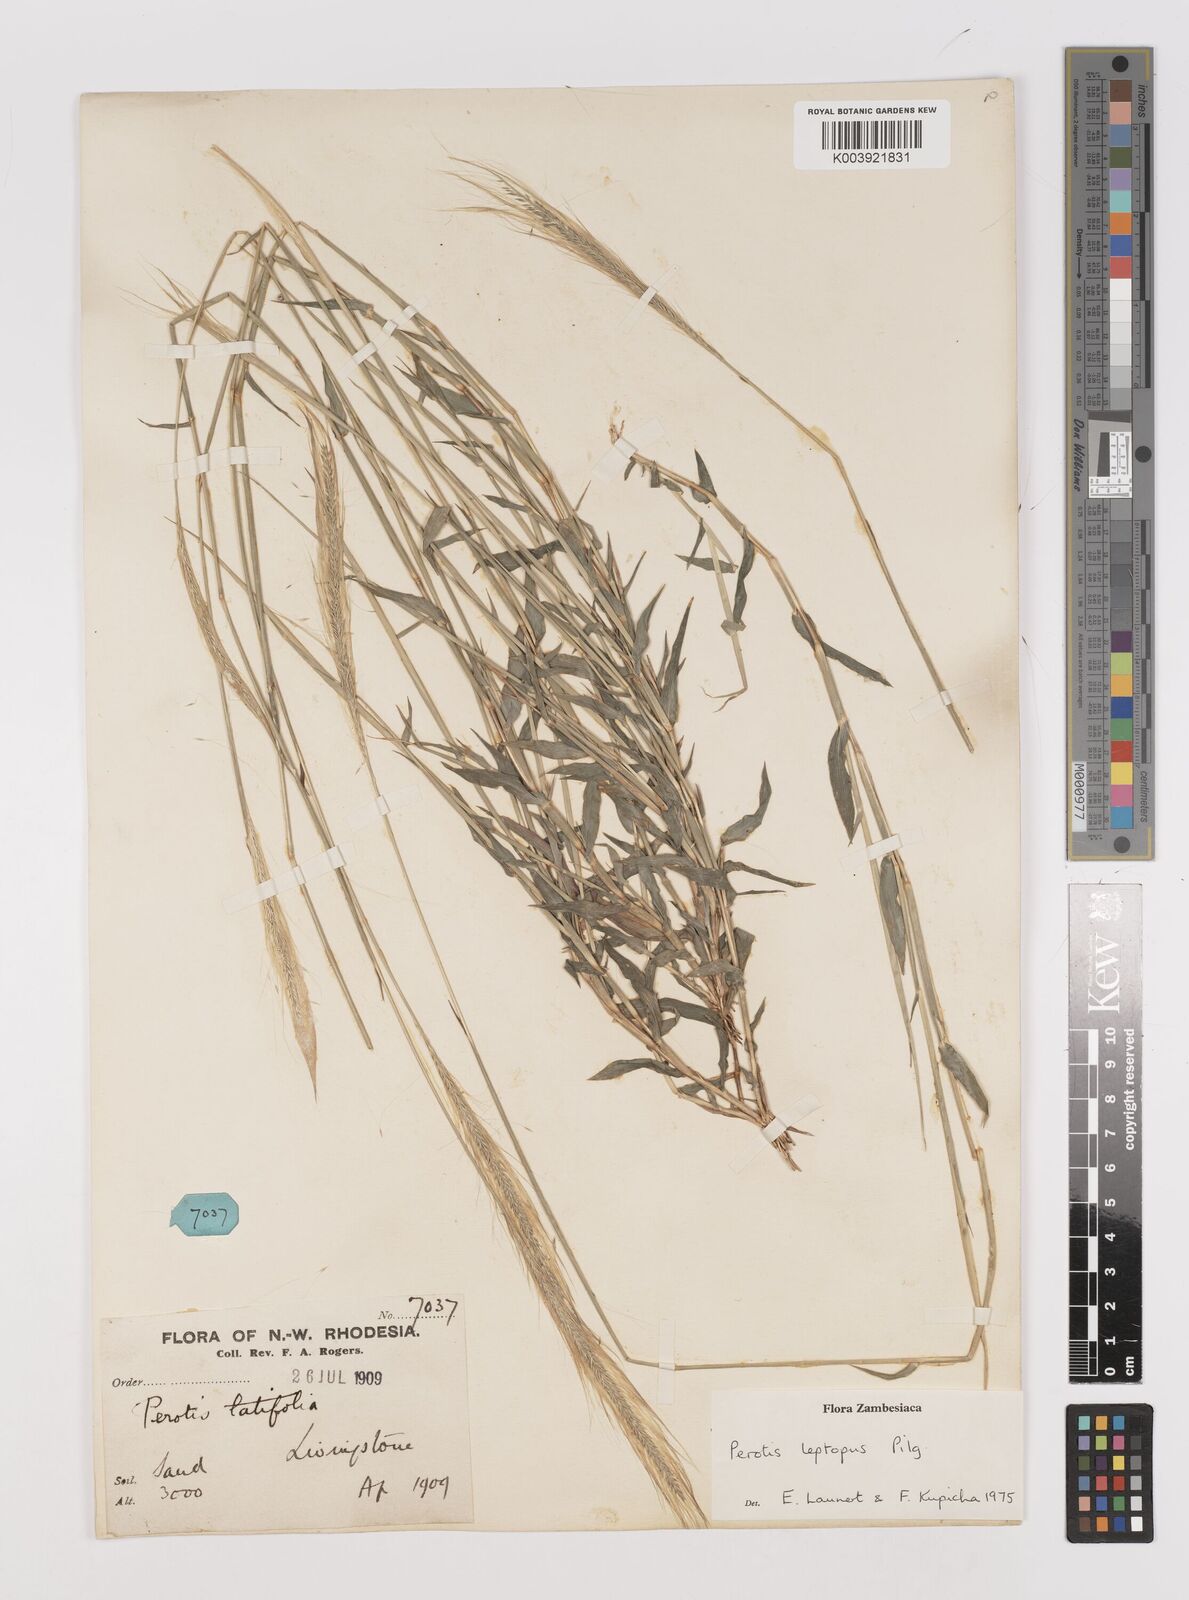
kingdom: Plantae
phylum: Tracheophyta
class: Liliopsida
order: Poales
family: Poaceae
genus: Perotis
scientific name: Perotis leptopus
